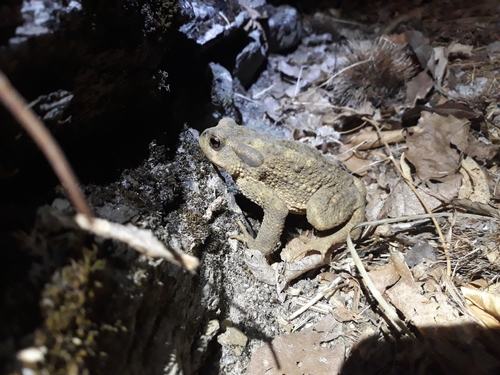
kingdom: Animalia
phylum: Chordata
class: Amphibia
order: Anura
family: Bufonidae
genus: Bufo
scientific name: Bufo spinosus
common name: Western common toad
